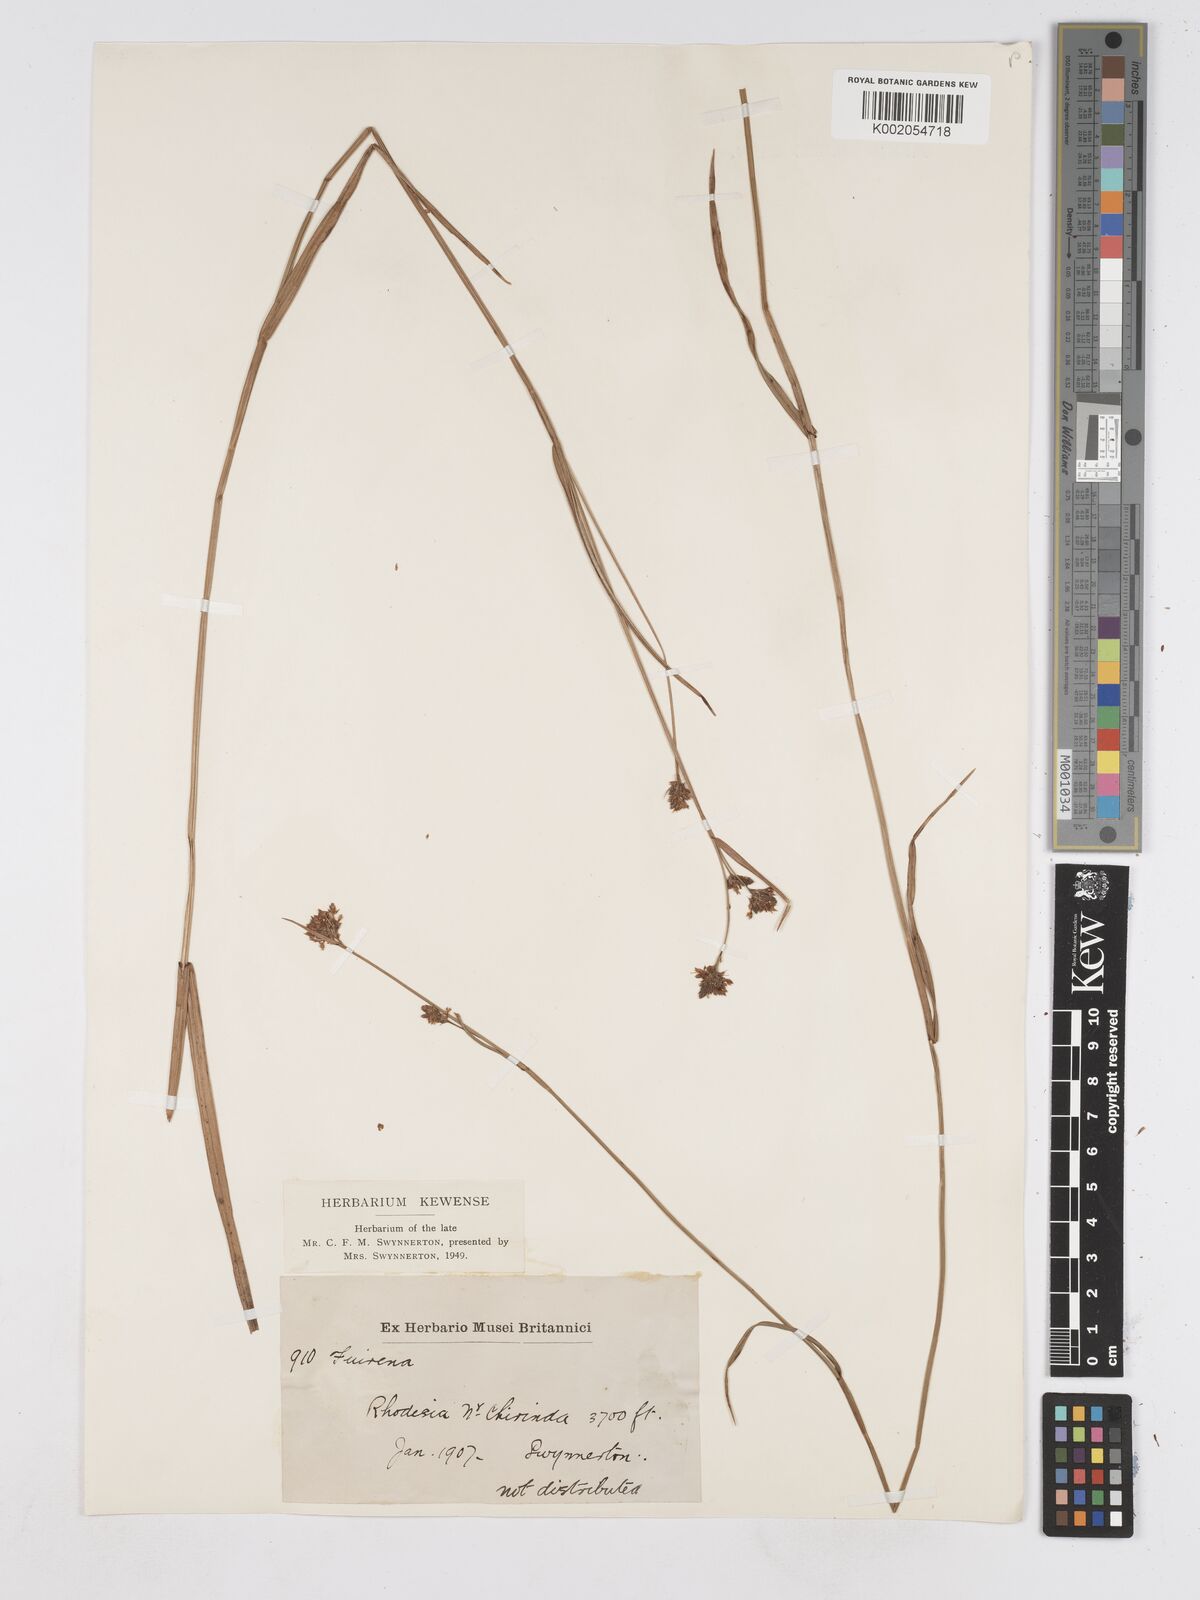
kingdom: Plantae
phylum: Tracheophyta
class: Liliopsida
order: Poales
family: Cyperaceae
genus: Fuirena
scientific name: Fuirena stricta
